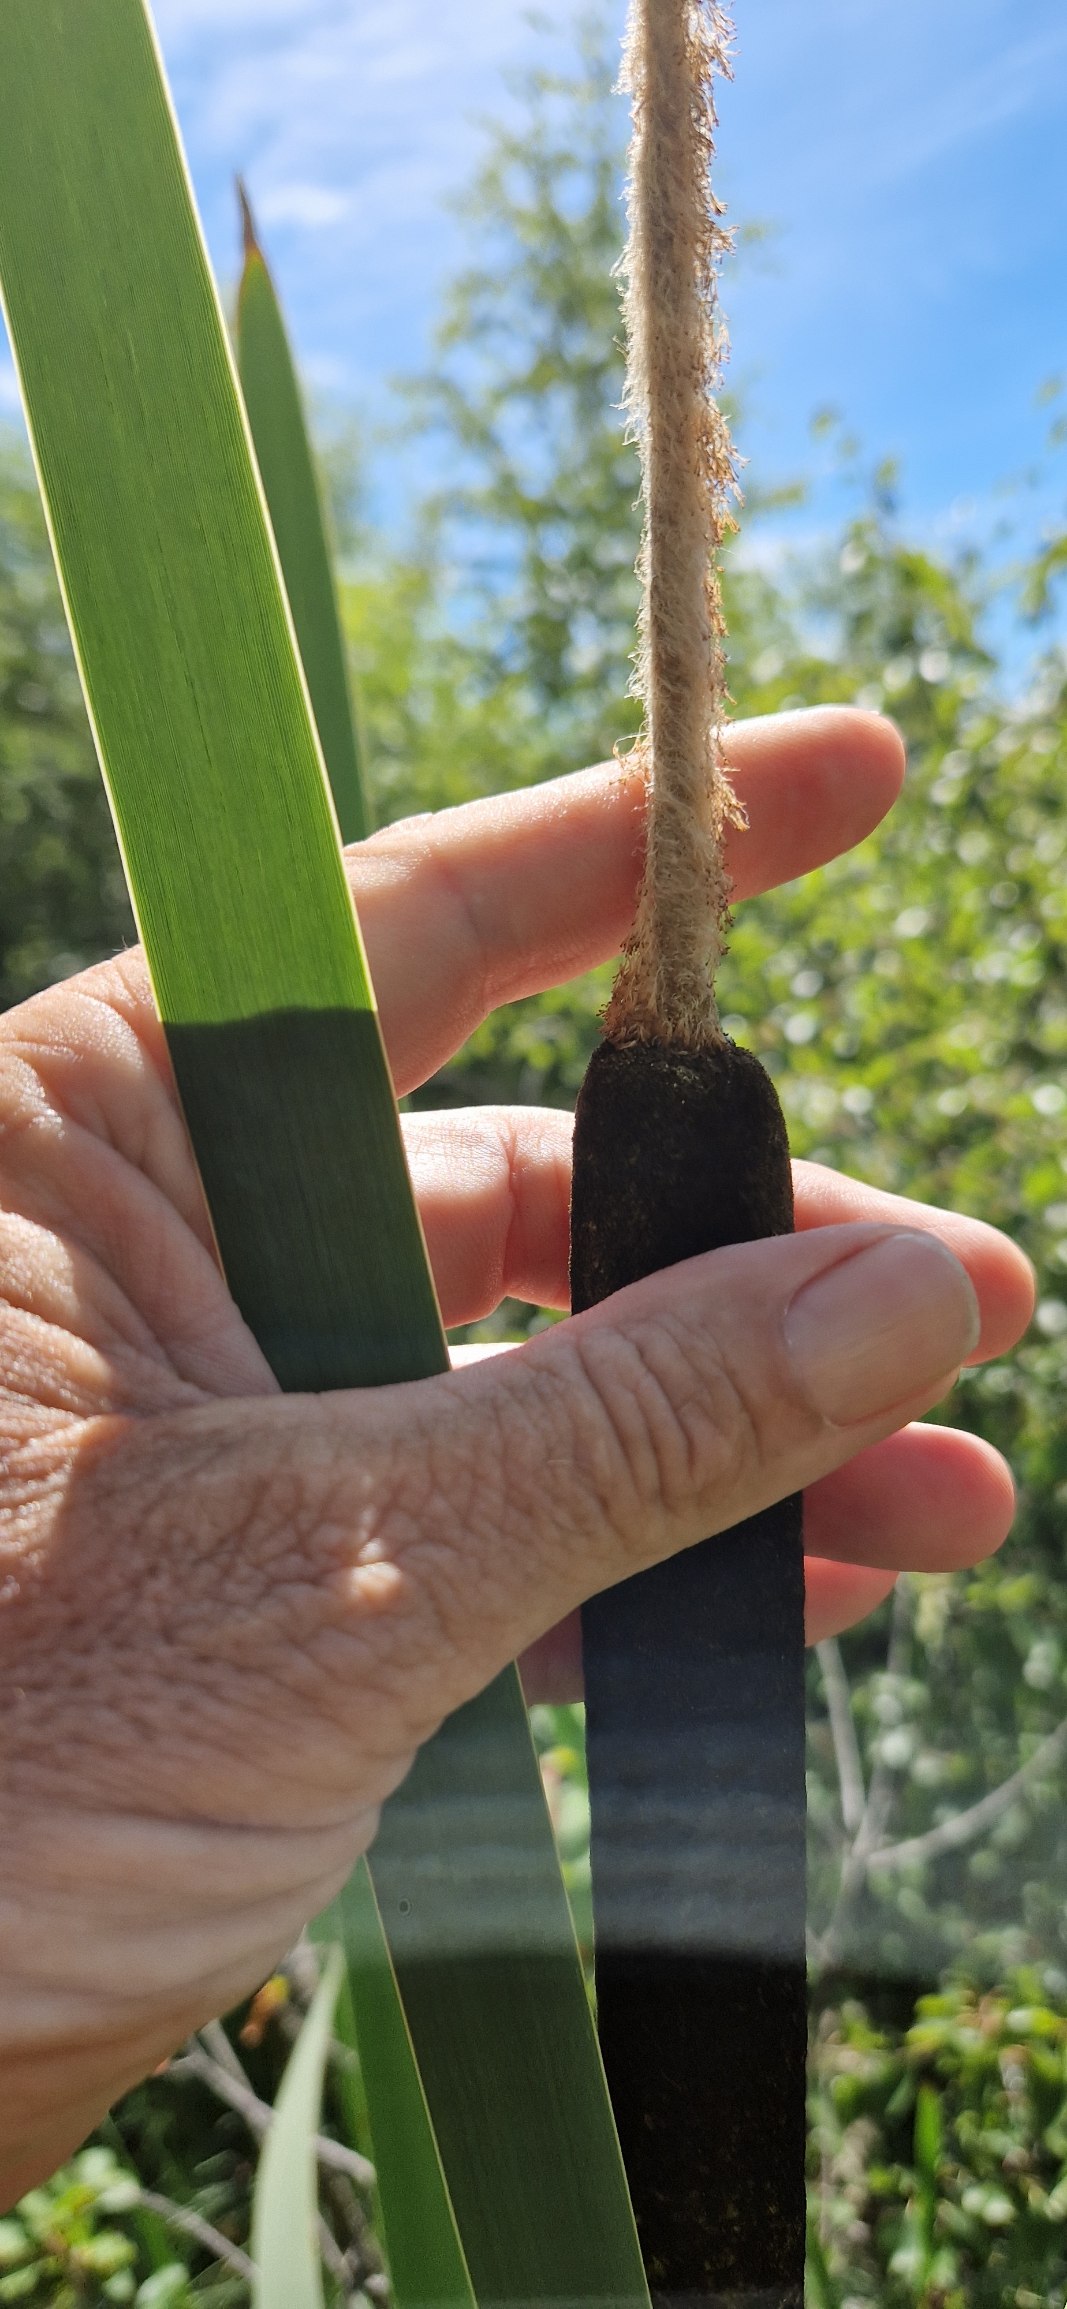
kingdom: Plantae
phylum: Tracheophyta
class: Liliopsida
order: Poales
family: Typhaceae
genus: Typha
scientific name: Typha latifolia
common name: Bredbladet dunhammer
